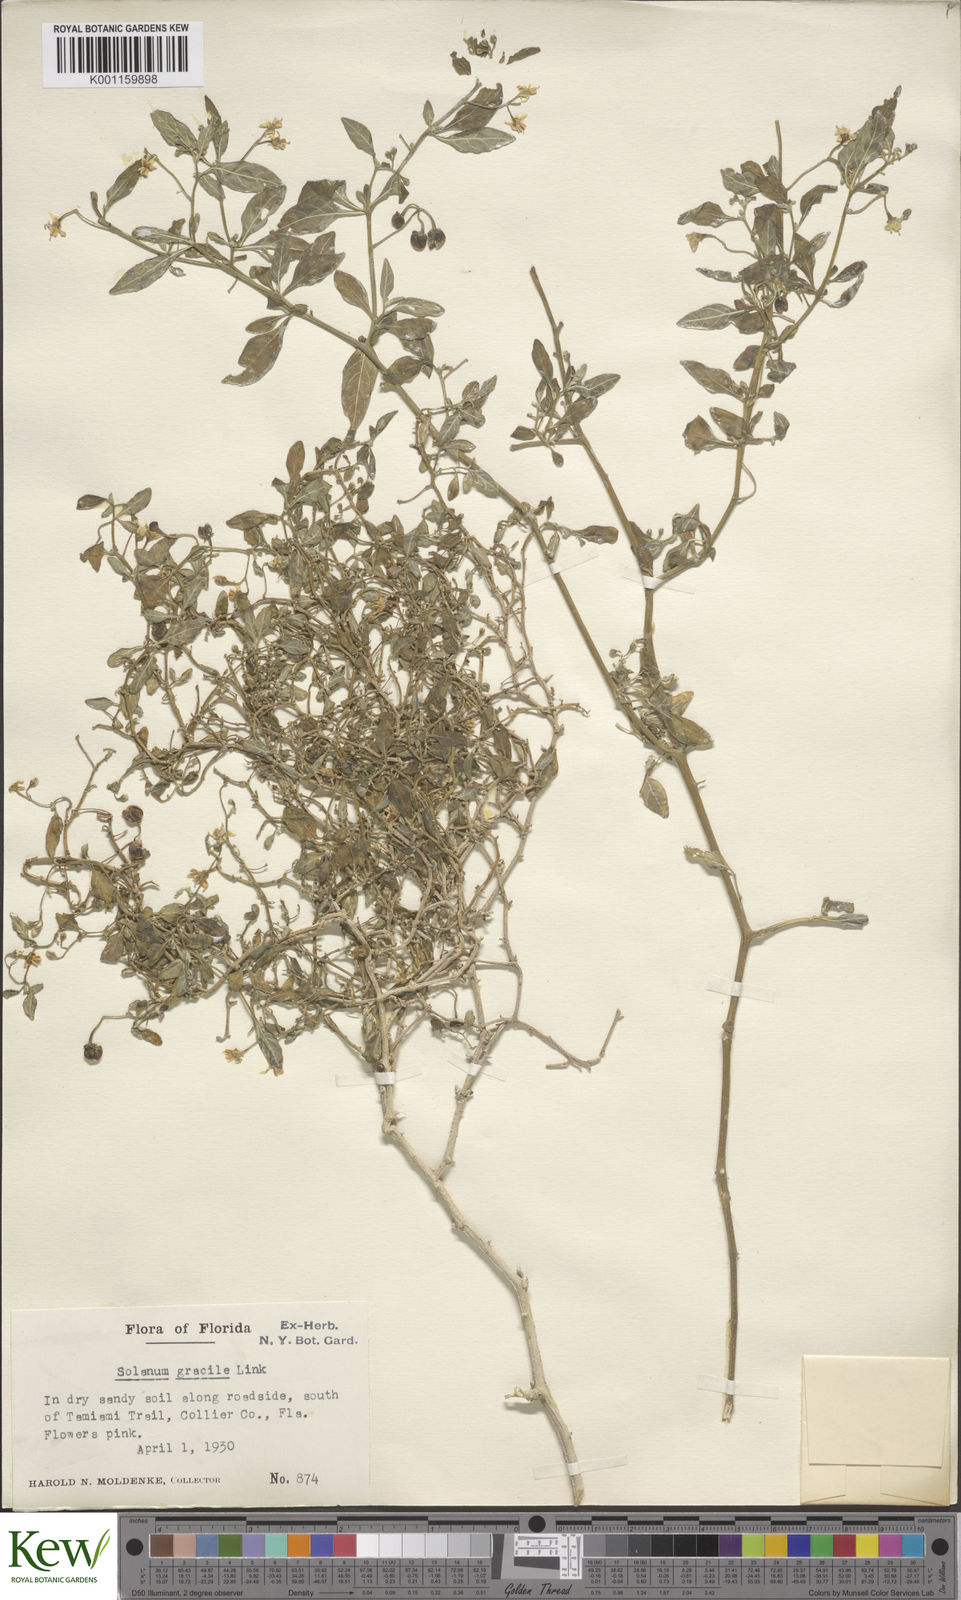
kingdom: Plantae
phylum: Tracheophyta
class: Magnoliopsida
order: Solanales
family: Solanaceae
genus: Solanum
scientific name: Solanum pseudogracile
